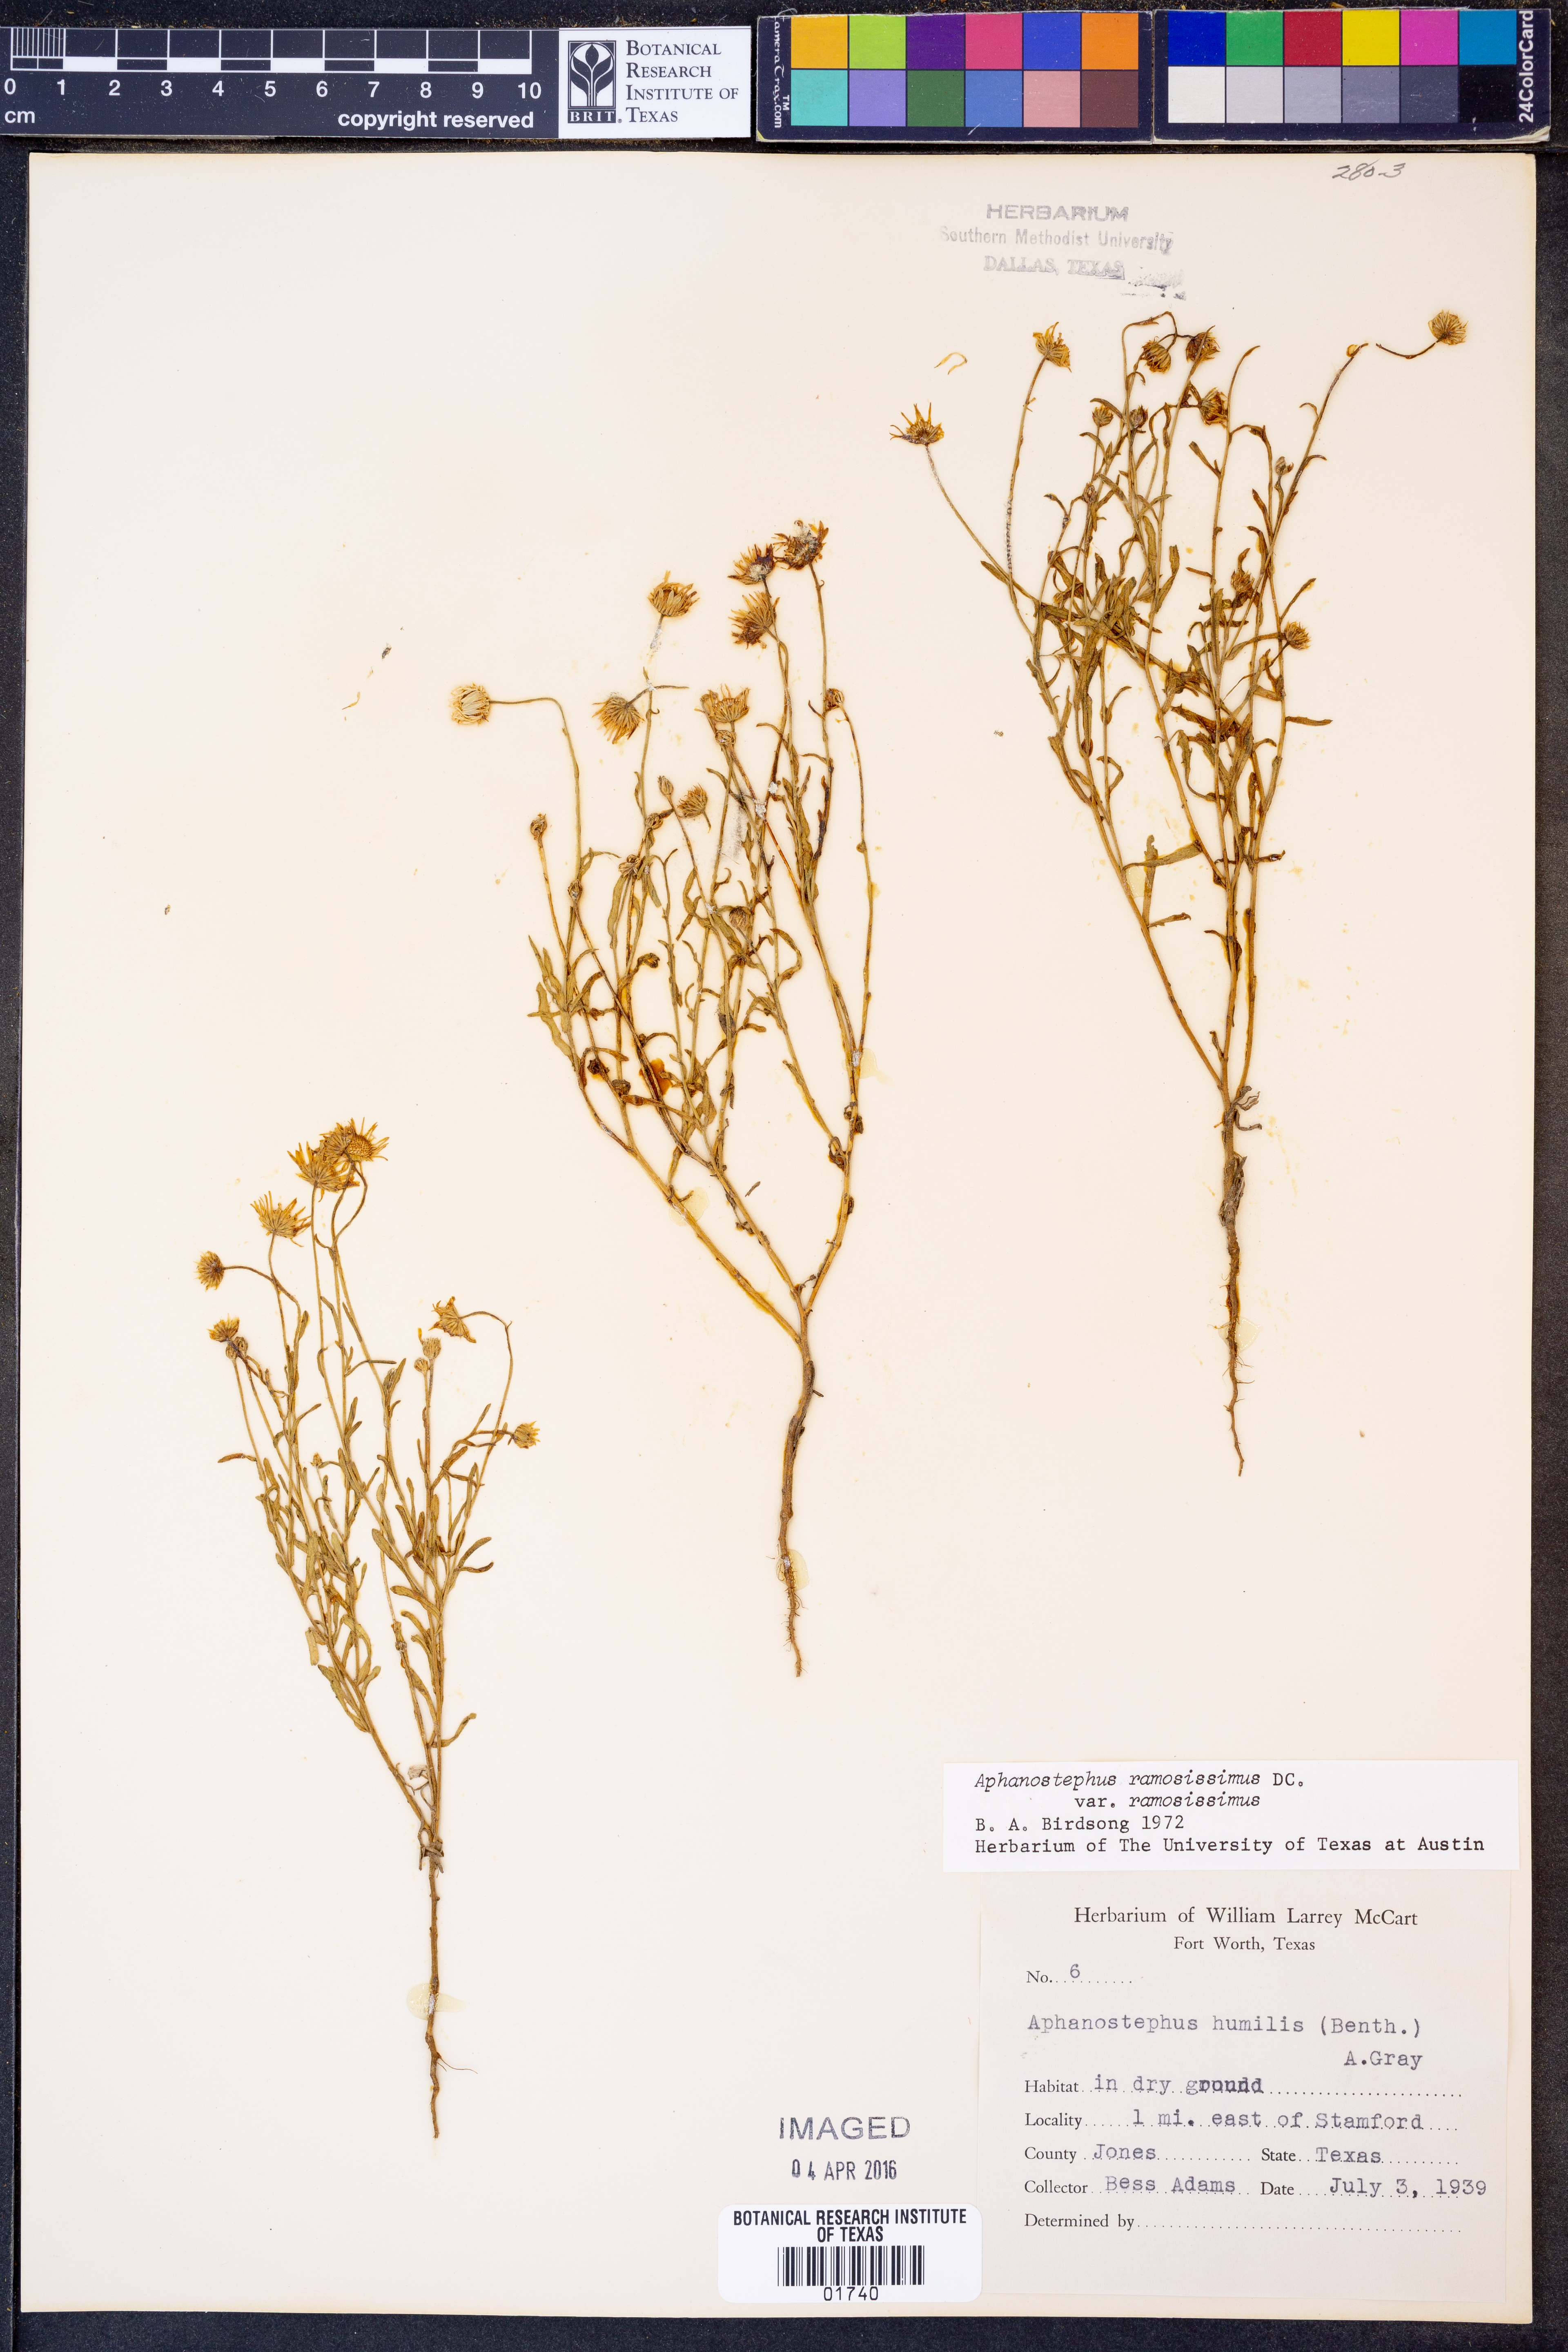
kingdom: Plantae
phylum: Tracheophyta
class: Magnoliopsida
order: Asterales
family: Asteraceae
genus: Aphanostephus
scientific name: Aphanostephus ramosissimus
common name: Plains lazy daisy
